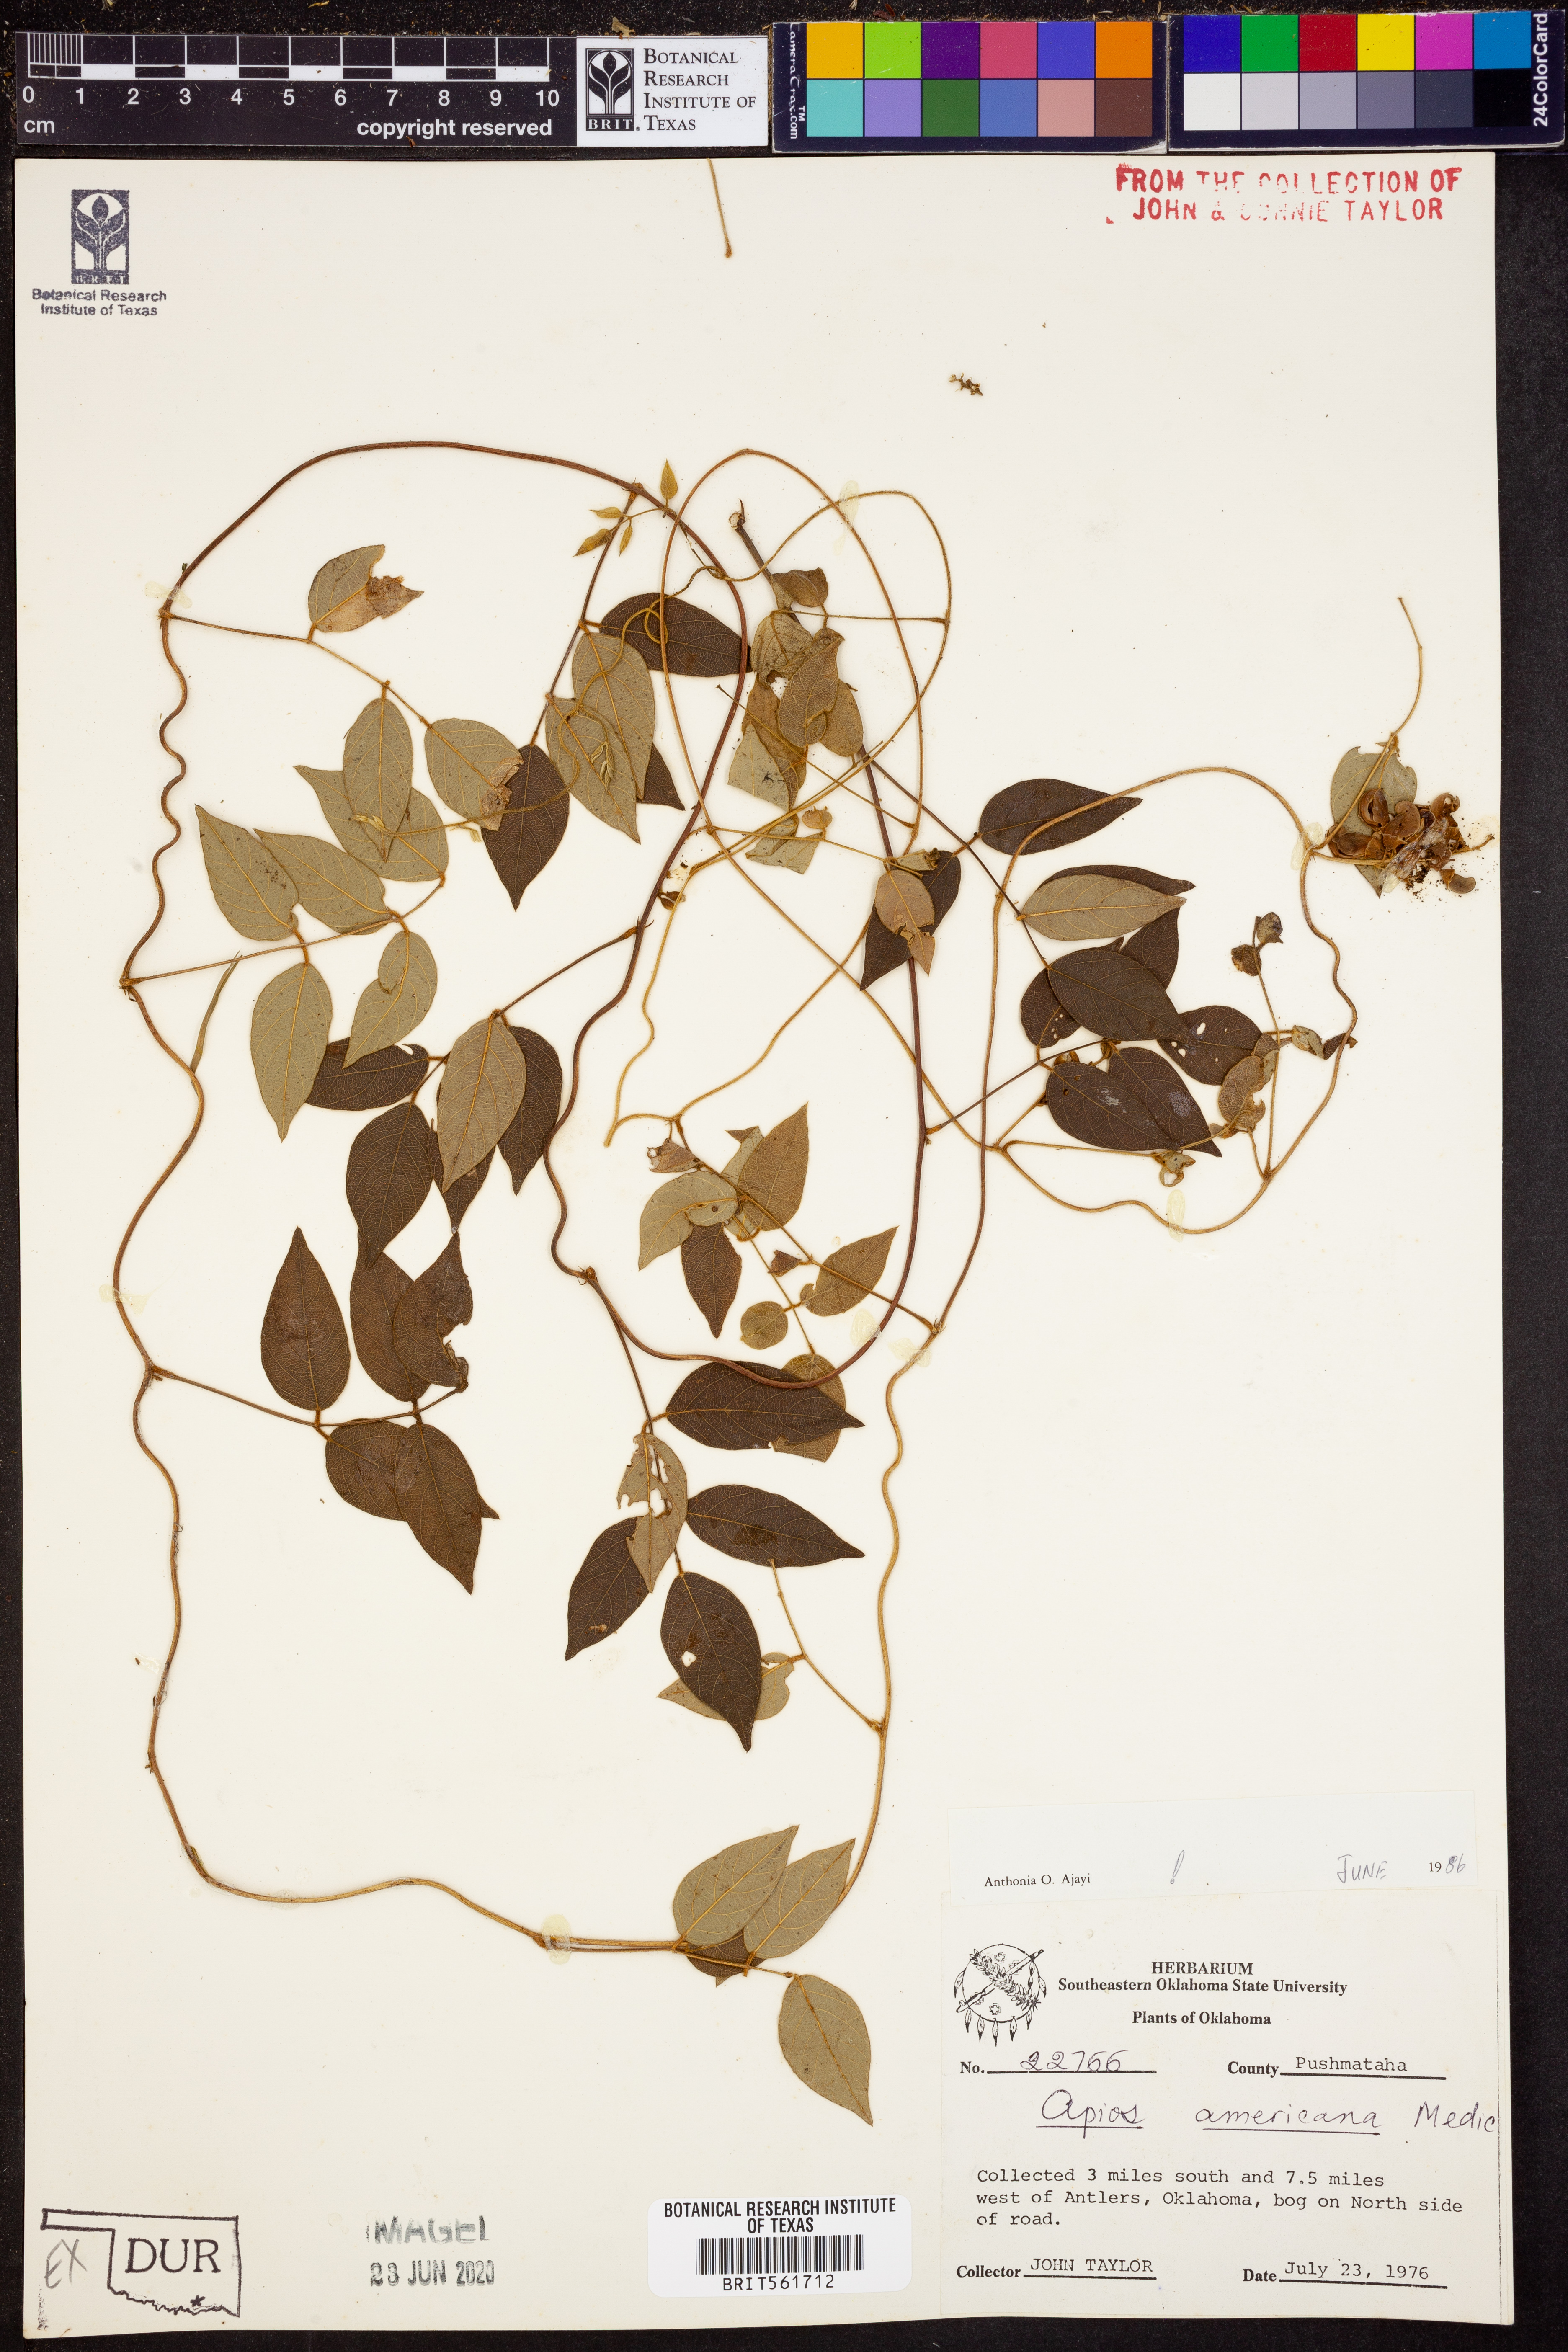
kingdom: Plantae
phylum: Tracheophyta
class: Magnoliopsida
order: Fabales
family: Fabaceae
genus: Apios
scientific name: Apios americana
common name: American potato-bean
